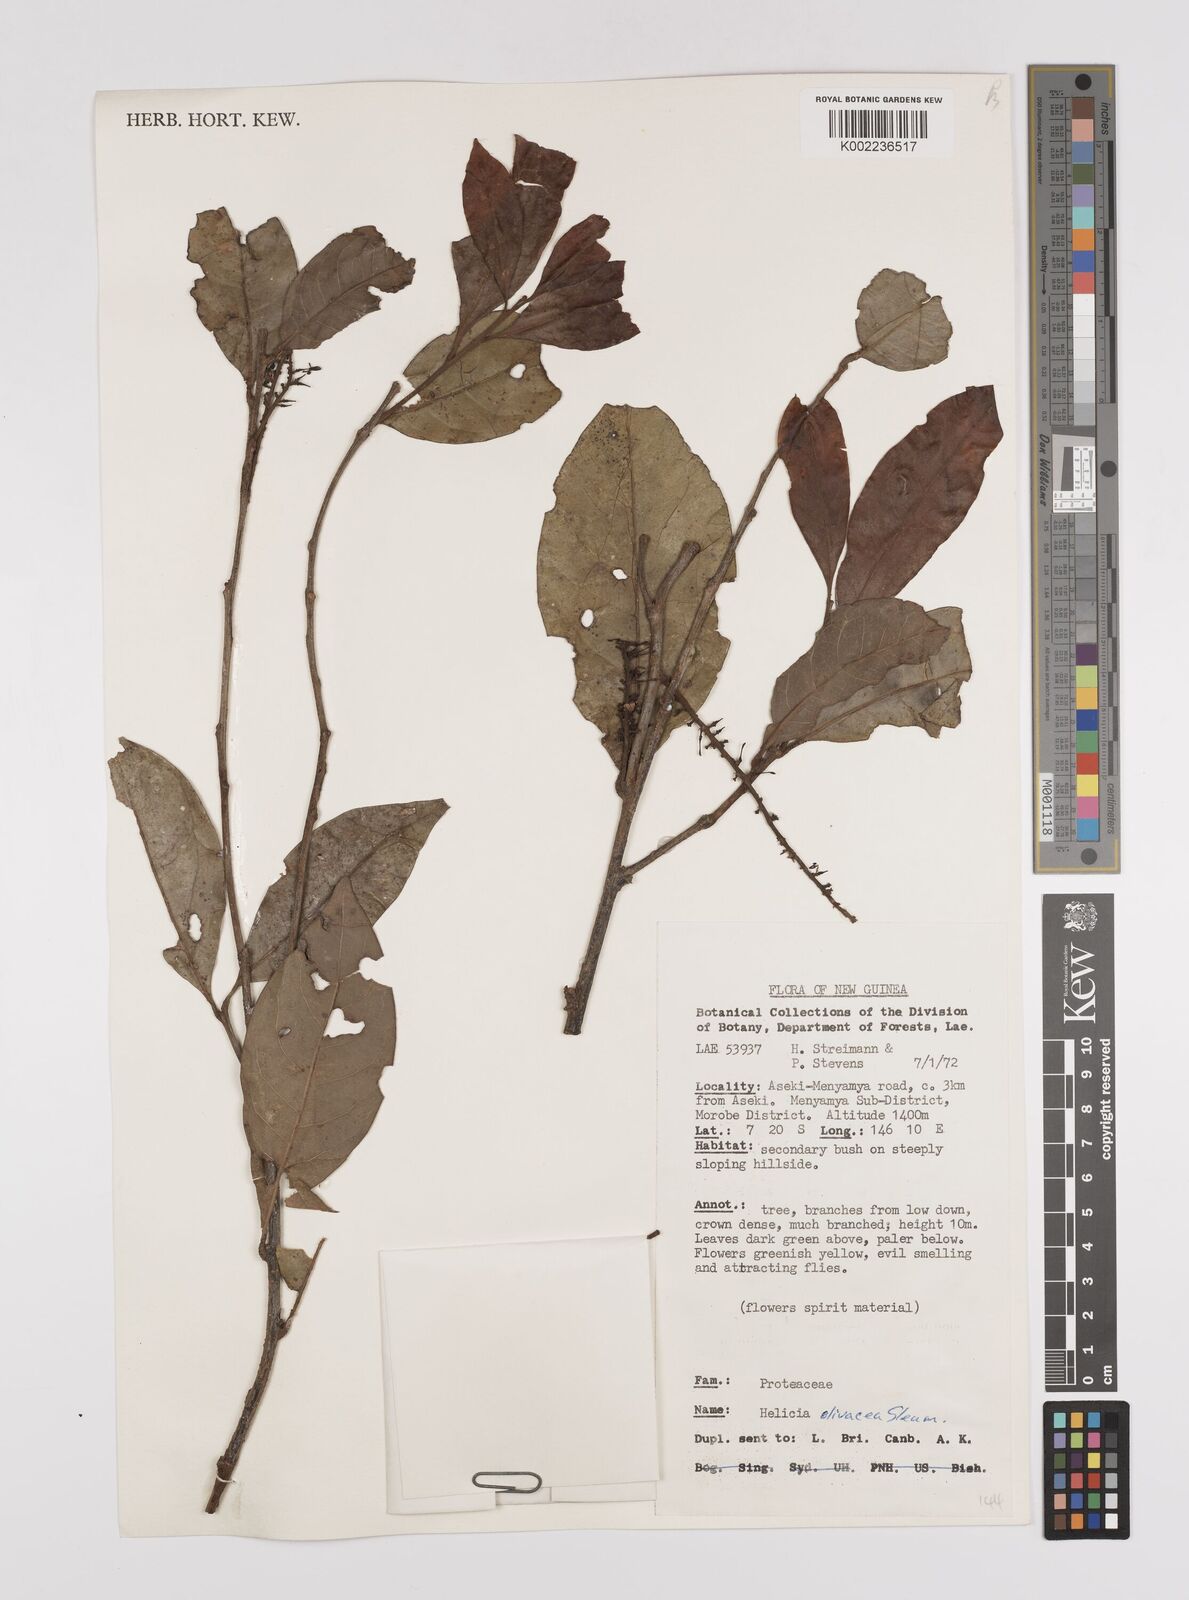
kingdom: Plantae
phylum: Tracheophyta
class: Magnoliopsida
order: Proteales
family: Proteaceae
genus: Helicia
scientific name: Helicia olivacea
